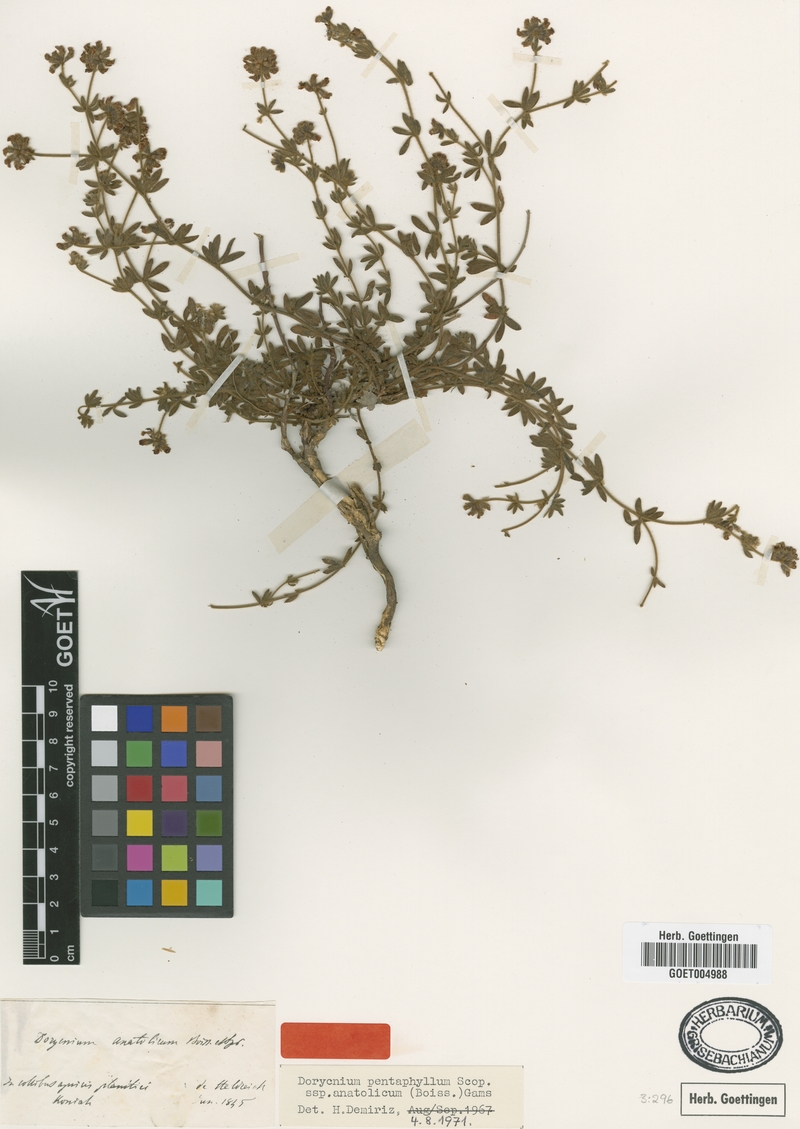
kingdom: Plantae
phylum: Tracheophyta
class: Magnoliopsida
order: Fabales
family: Fabaceae
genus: Lotus
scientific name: Lotus Dorycnium anatolicum
